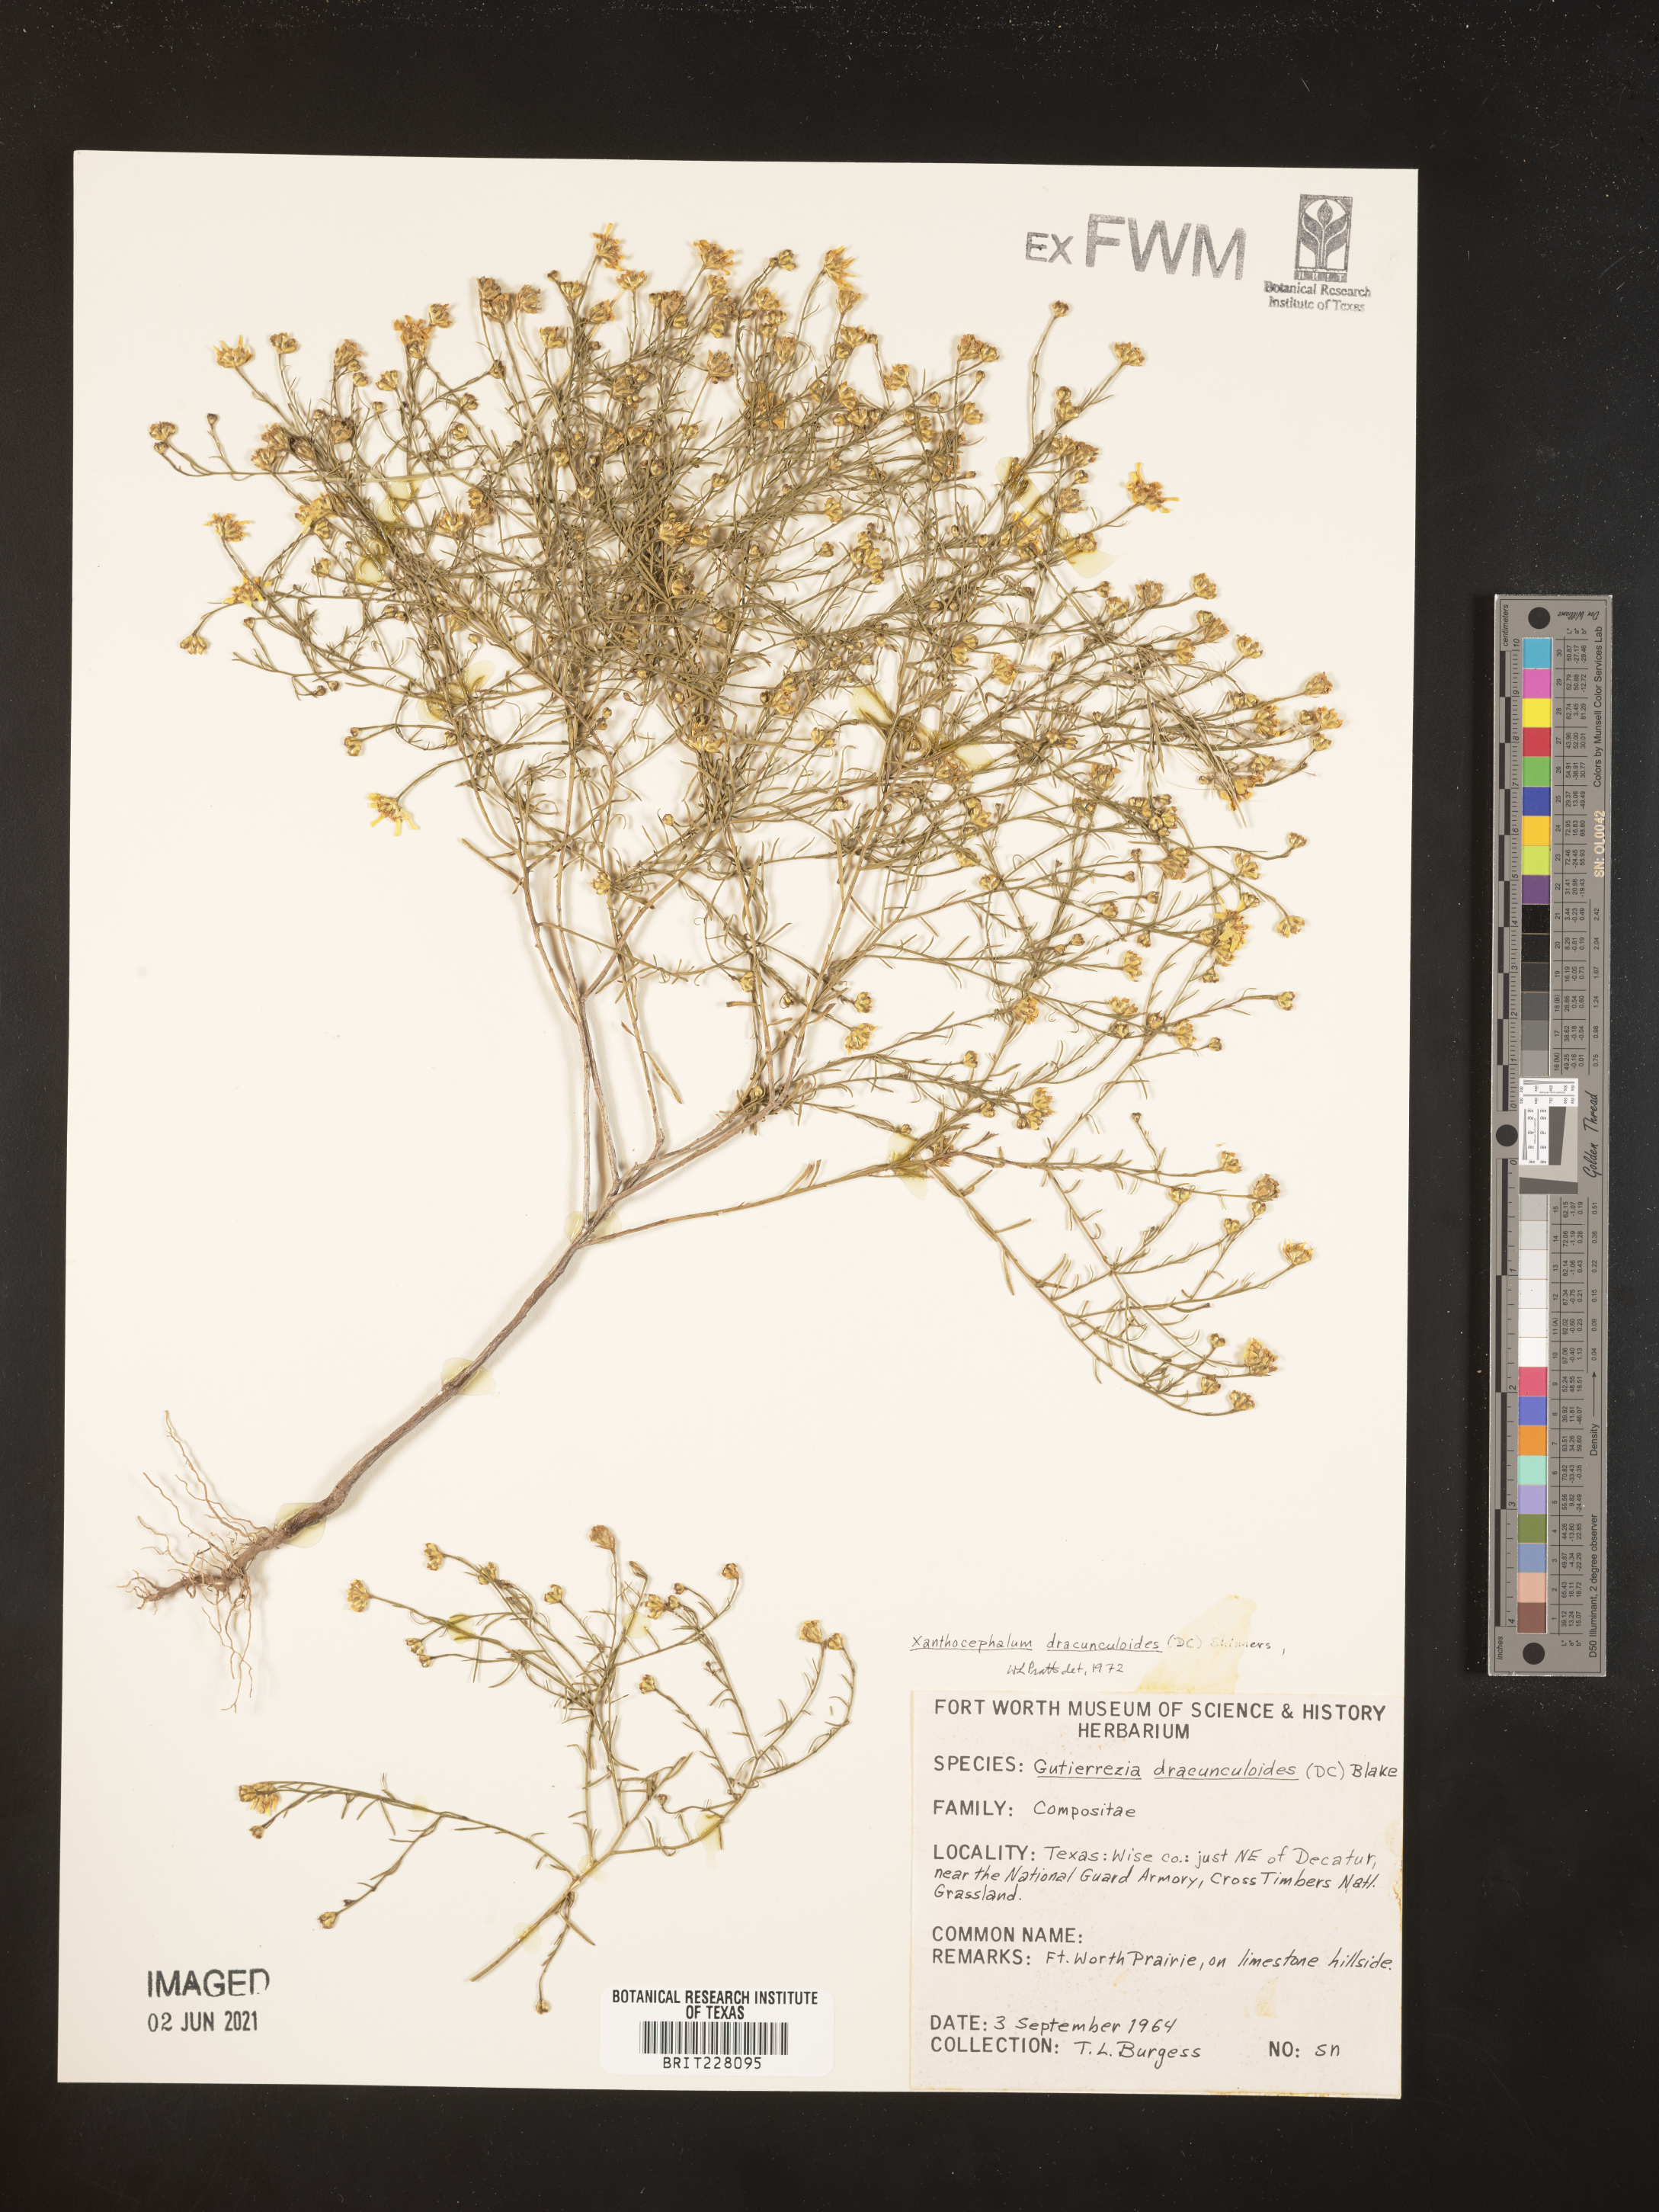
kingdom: Plantae
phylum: Tracheophyta
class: Magnoliopsida
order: Asterales
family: Asteraceae
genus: Amphiachyris
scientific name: Amphiachyris dracunculoides
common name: Broomweed
